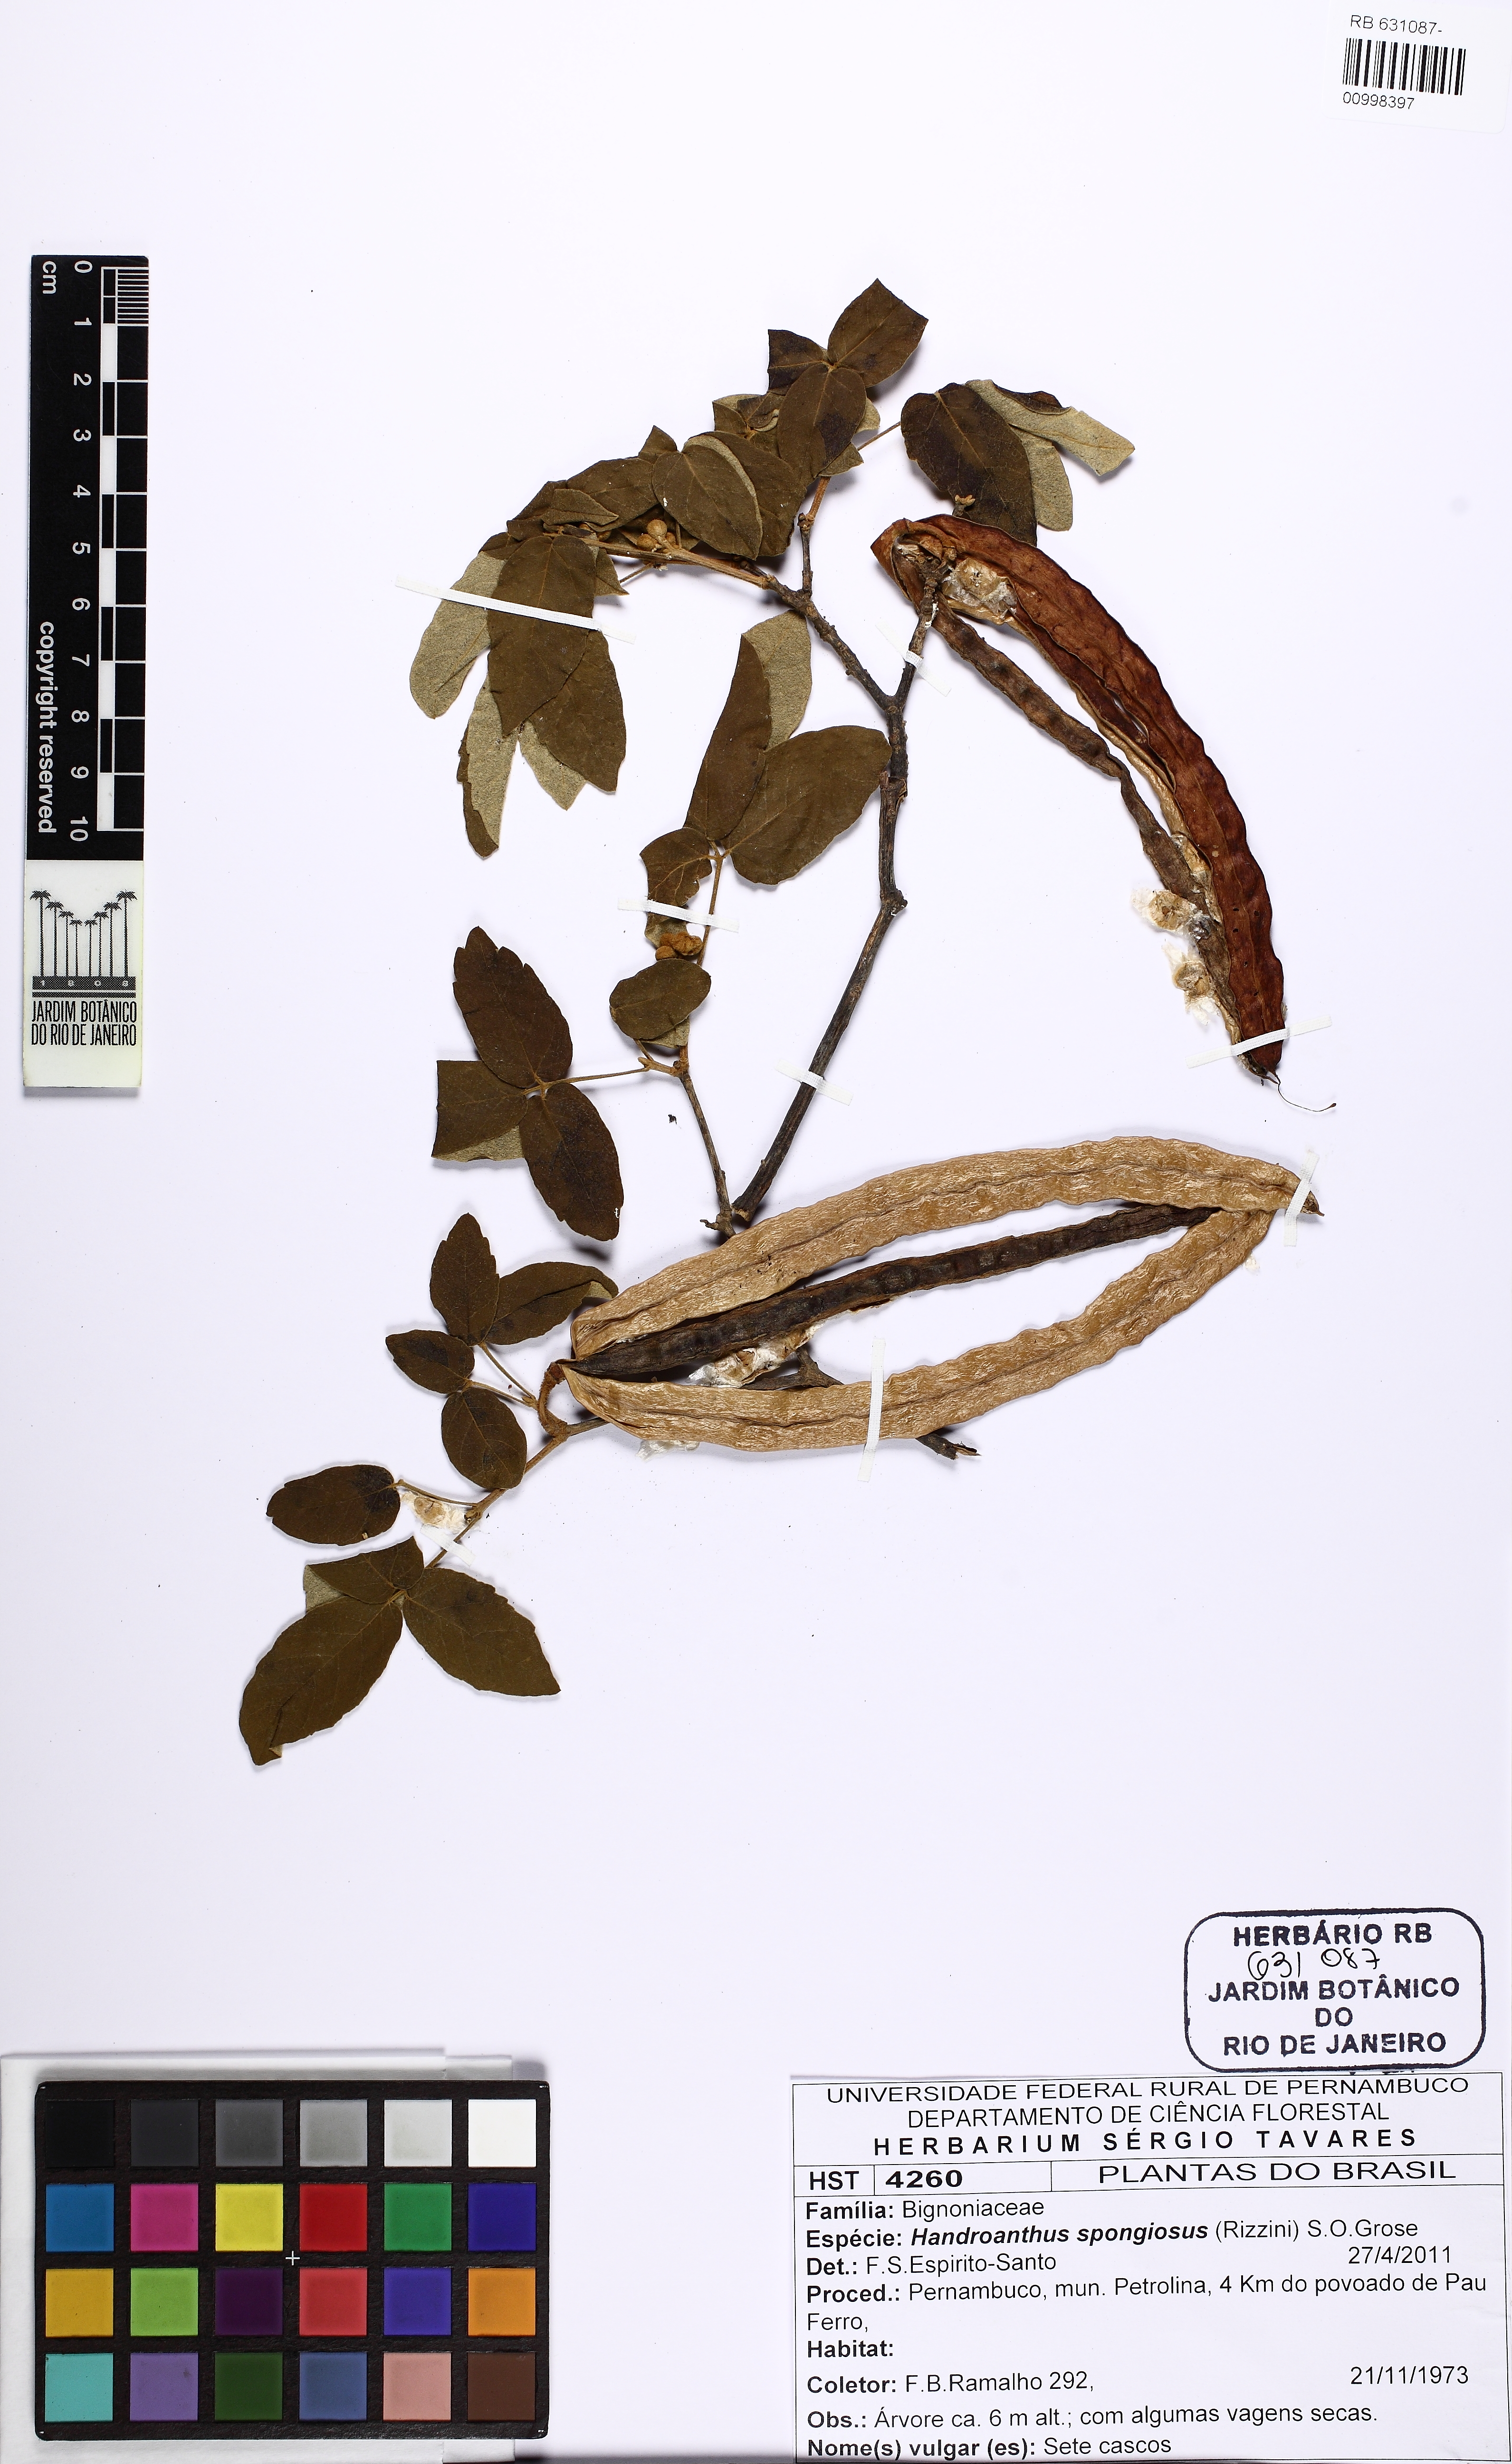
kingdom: Plantae
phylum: Tracheophyta
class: Magnoliopsida
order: Lamiales
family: Bignoniaceae
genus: Handroanthus
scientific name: Handroanthus spongiosus
